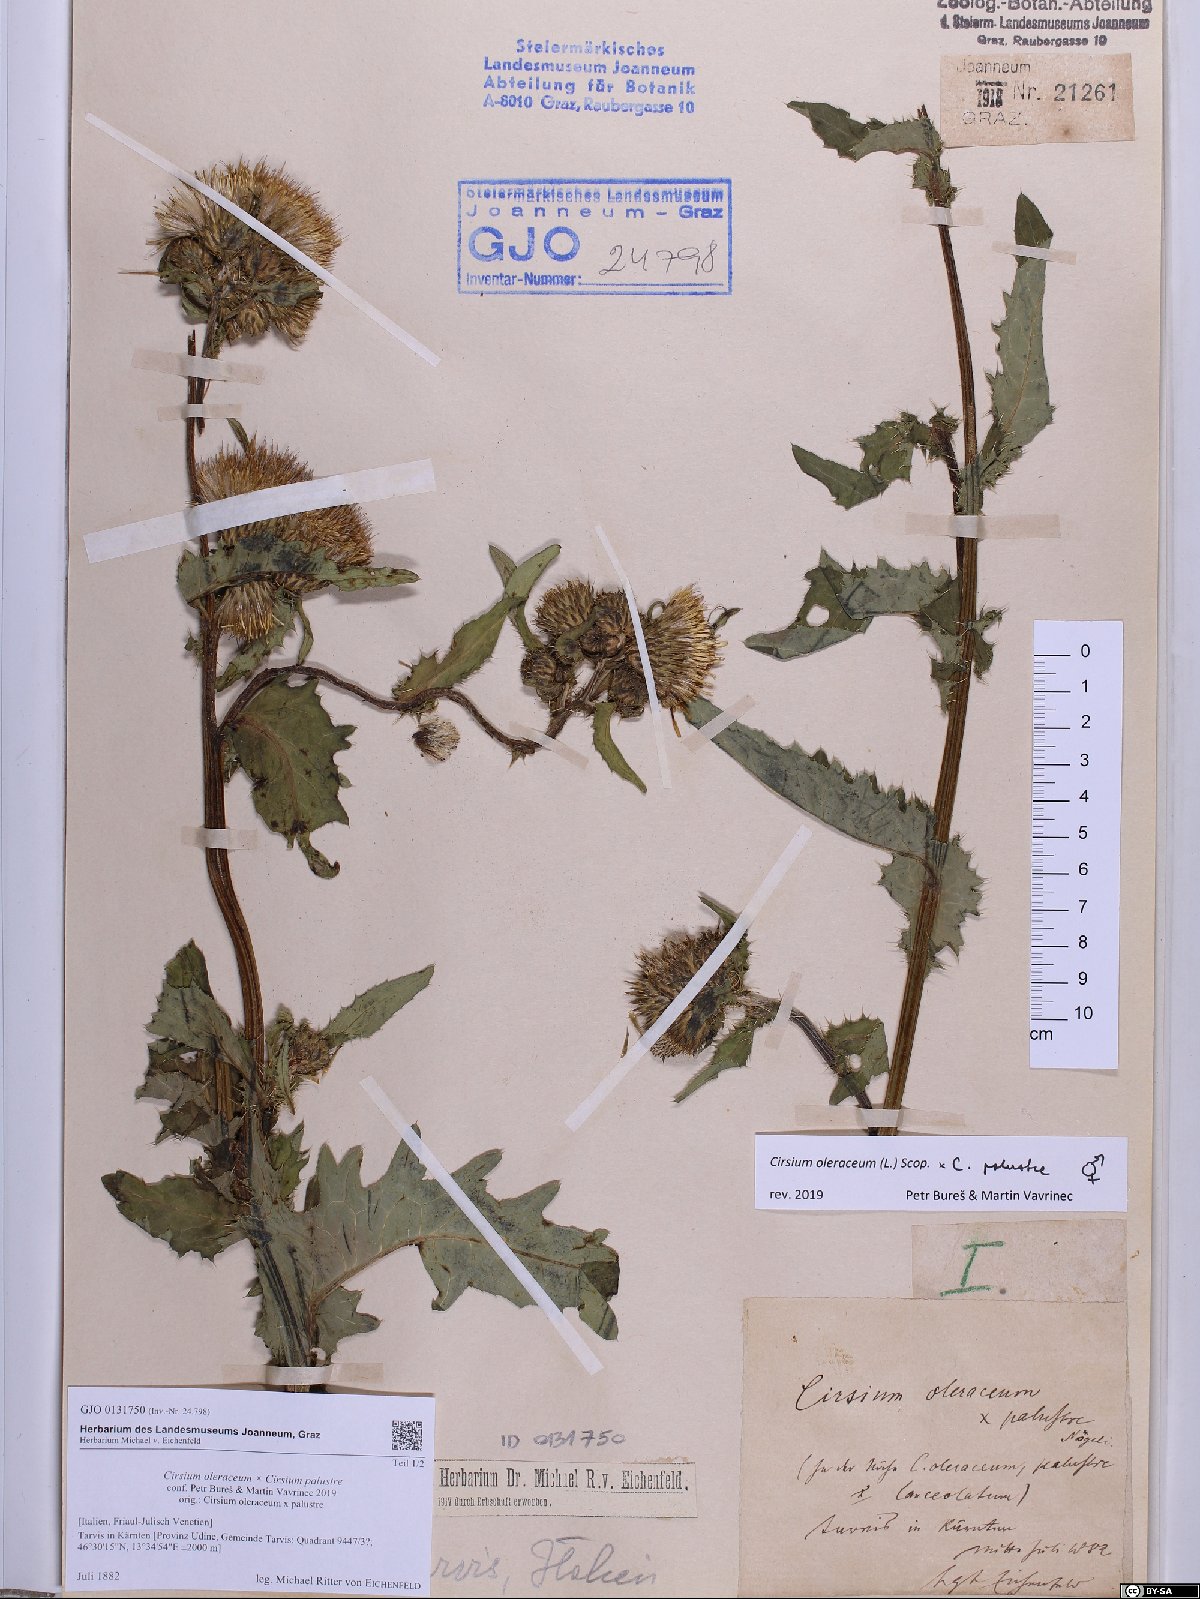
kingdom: Plantae
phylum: Tracheophyta
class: Magnoliopsida
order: Asterales
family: Asteraceae
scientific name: Asteraceae
